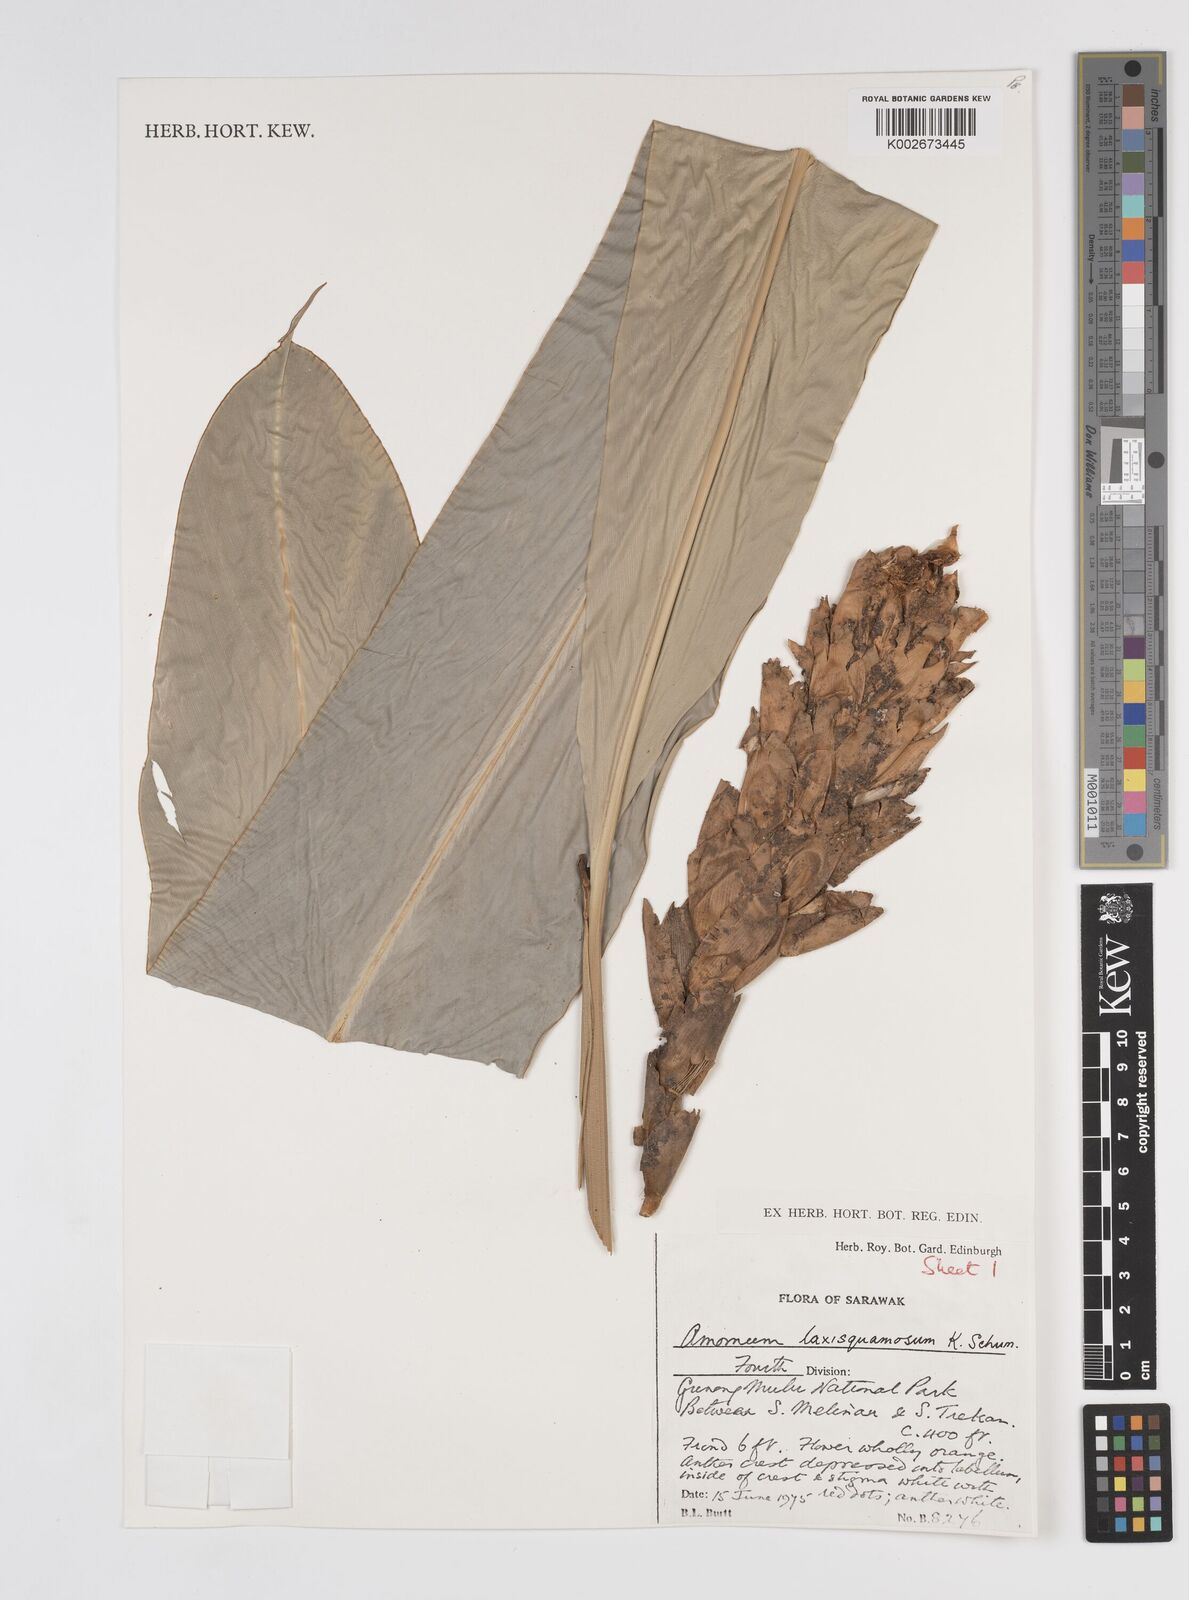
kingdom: Plantae
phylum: Tracheophyta
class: Liliopsida
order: Zingiberales
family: Zingiberaceae
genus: Sundamomum
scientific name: Sundamomum laxesquamosum
